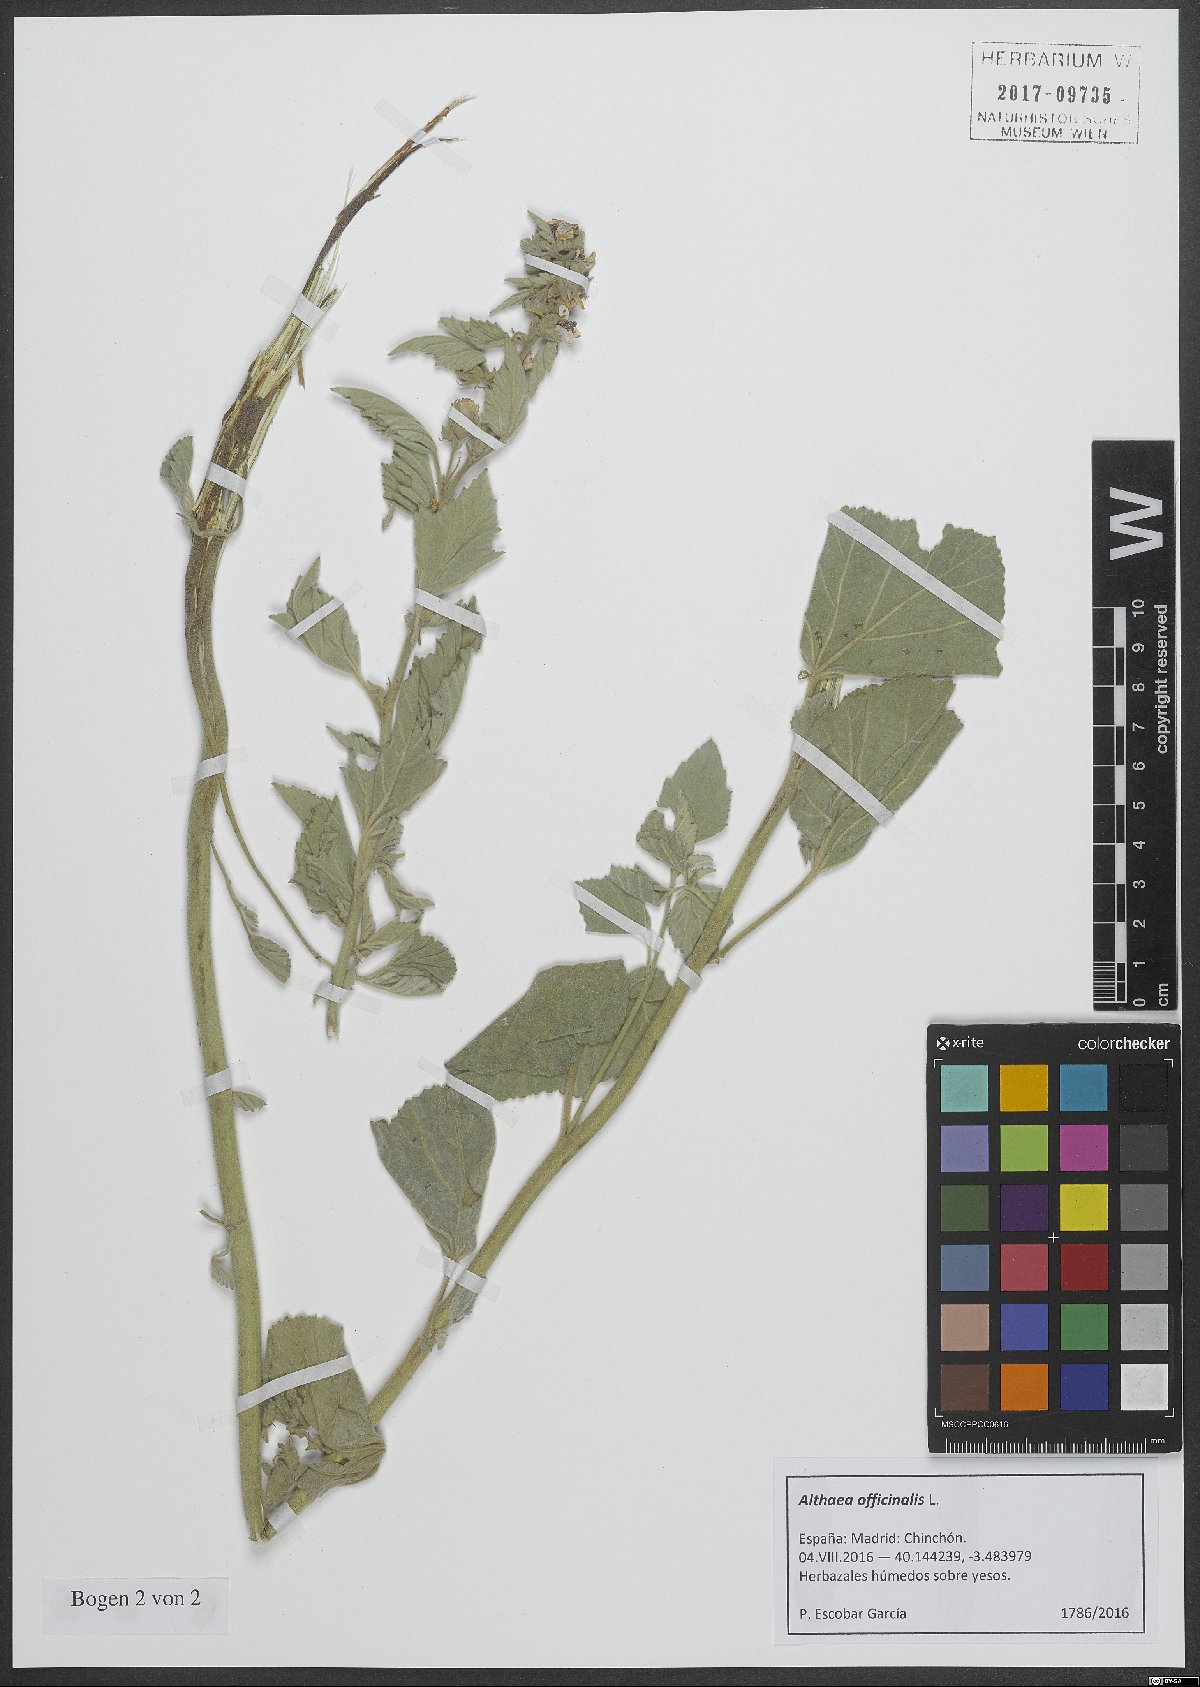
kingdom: Plantae
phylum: Tracheophyta
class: Magnoliopsida
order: Malvales
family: Malvaceae
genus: Althaea
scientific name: Althaea officinalis
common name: Marsh-mallow
